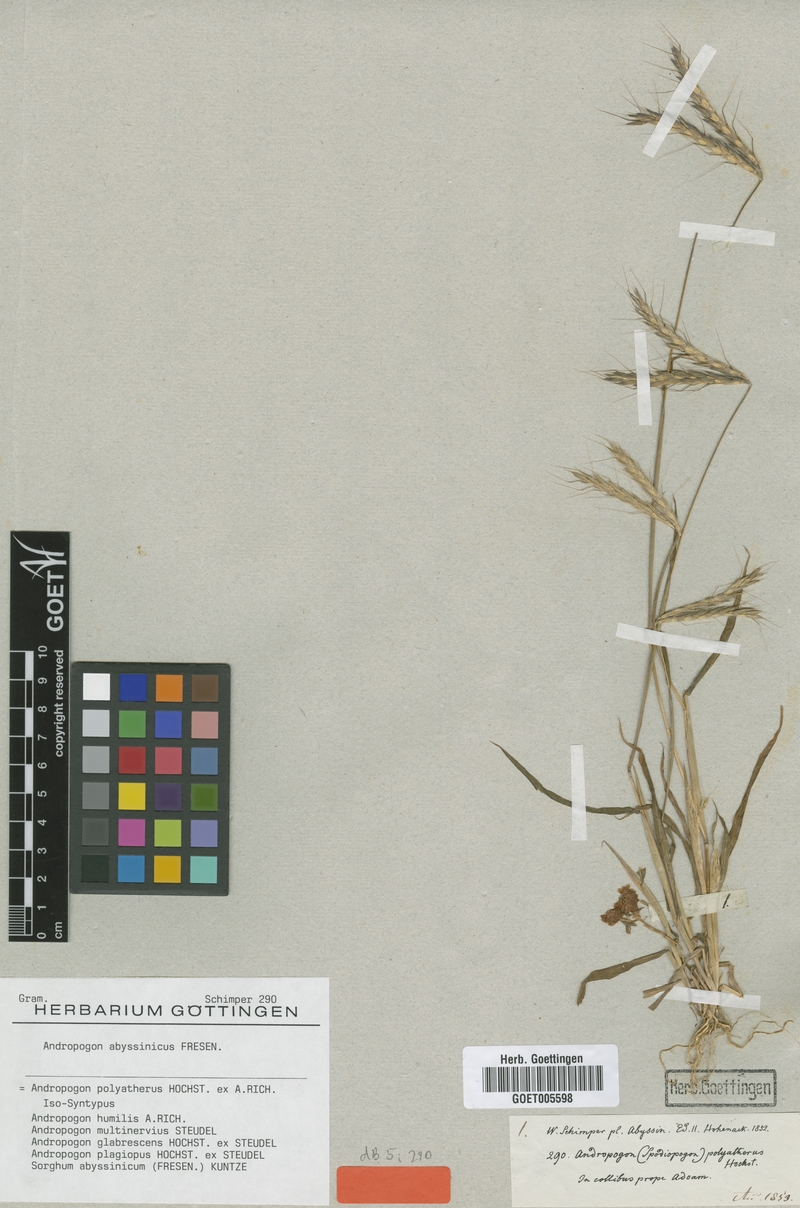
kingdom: Plantae
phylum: Tracheophyta
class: Liliopsida
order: Poales
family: Poaceae
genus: Andropogon
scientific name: Andropogon abyssinicus
